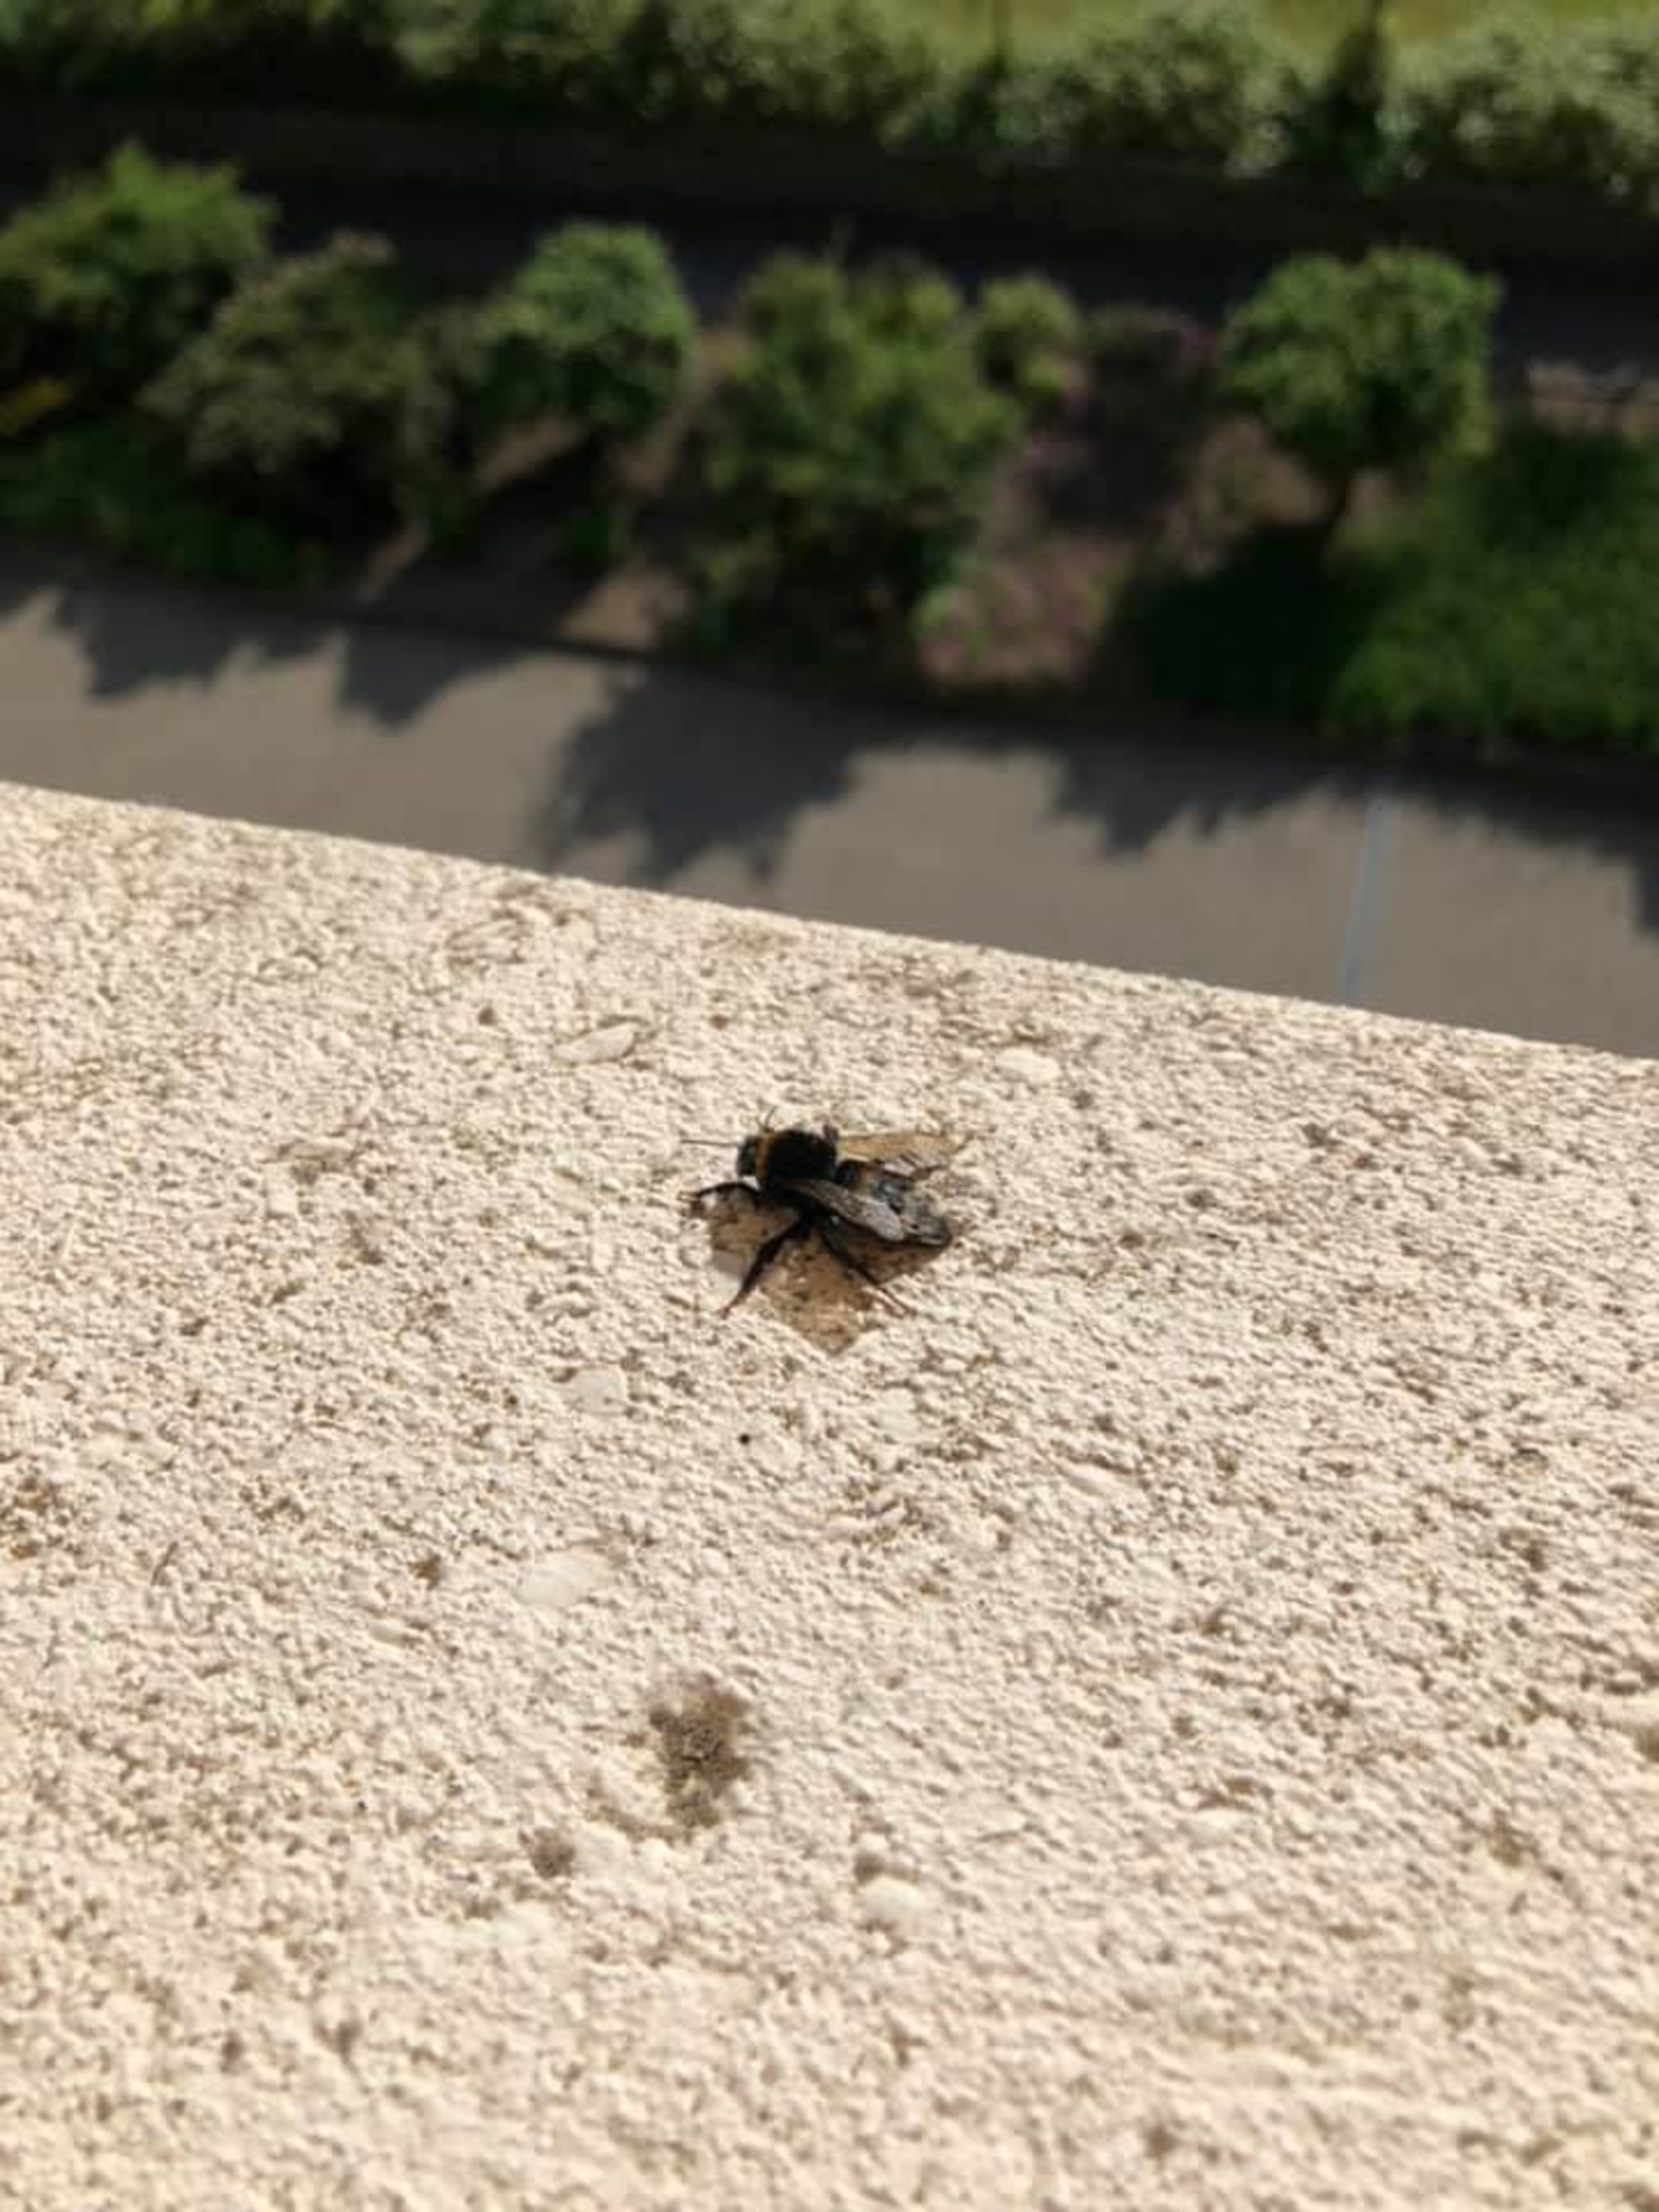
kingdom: Animalia
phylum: Arthropoda
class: Insecta
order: Hymenoptera
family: Apidae
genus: Bombus
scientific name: Bombus terrestris
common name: Mørk jordhumle
